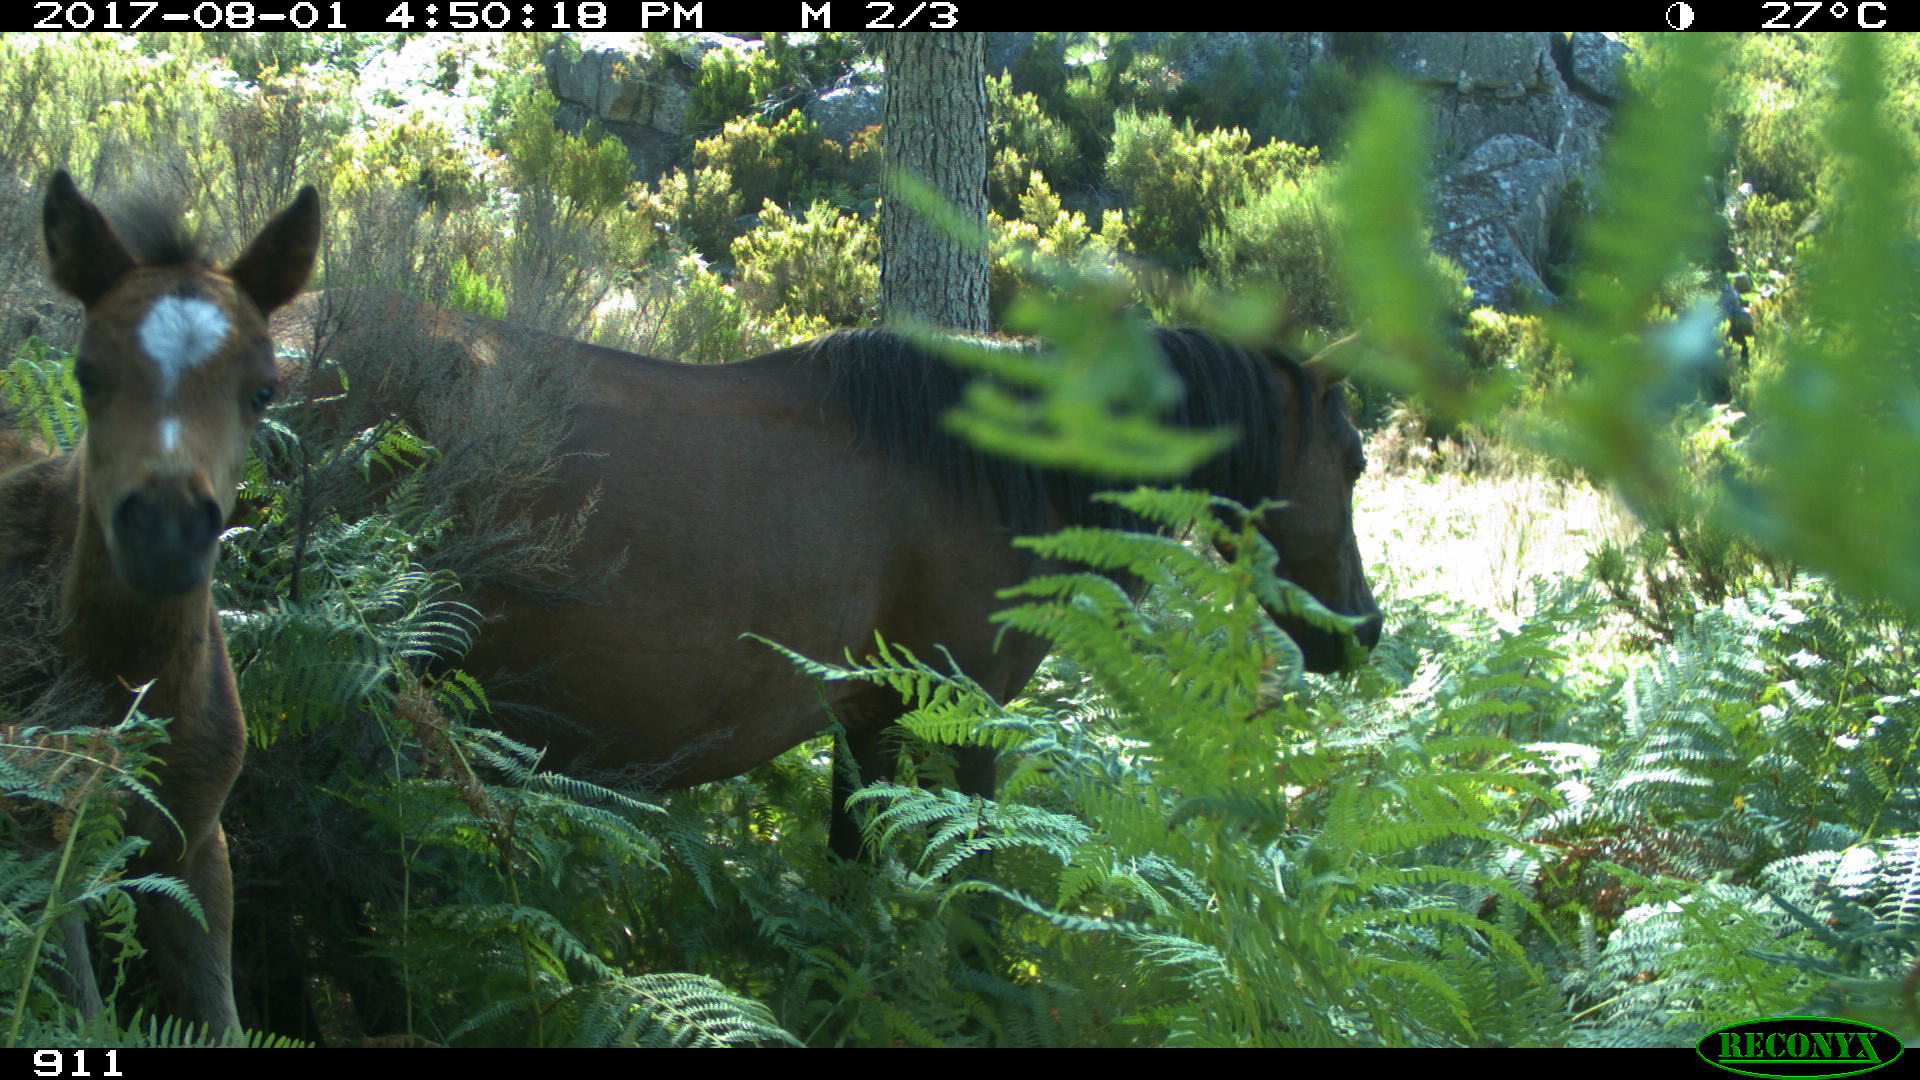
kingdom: Animalia
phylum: Chordata
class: Mammalia
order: Perissodactyla
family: Equidae
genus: Equus
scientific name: Equus caballus
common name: Horse
